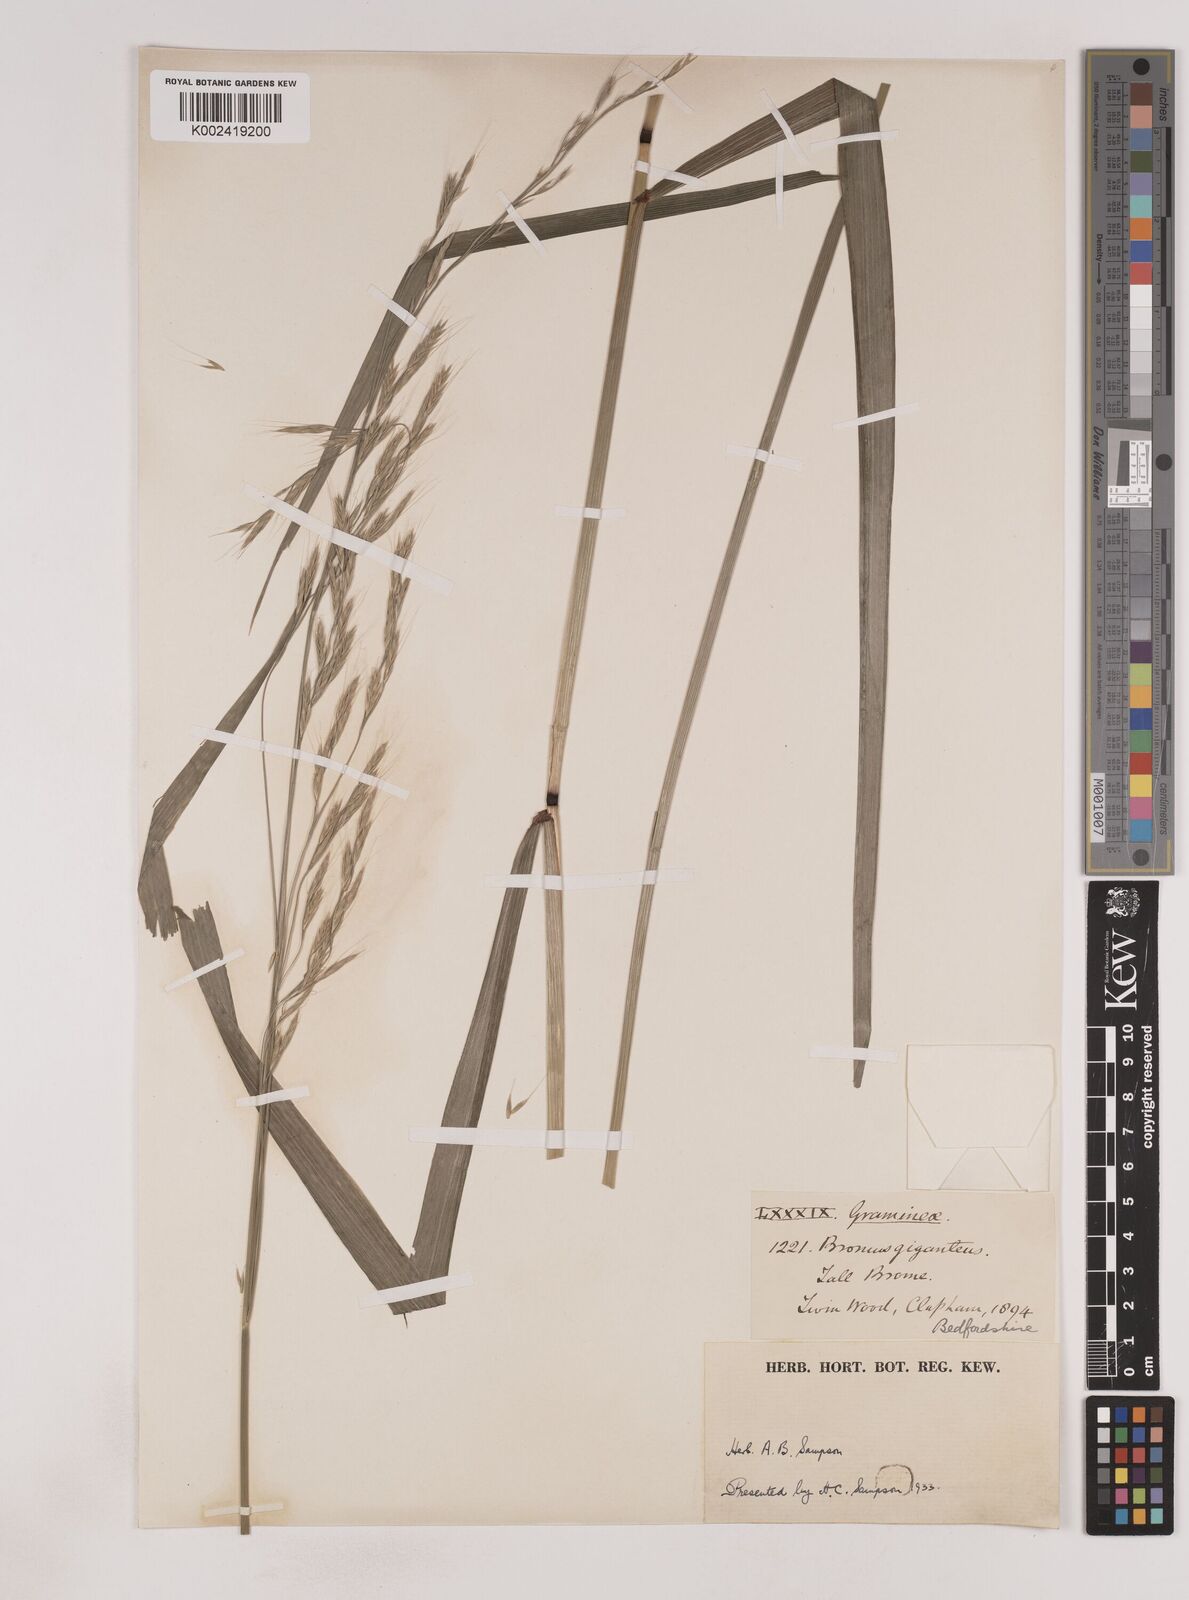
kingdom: Plantae
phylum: Tracheophyta
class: Liliopsida
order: Poales
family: Poaceae
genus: Lolium
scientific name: Lolium giganteum
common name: Giant fescue
